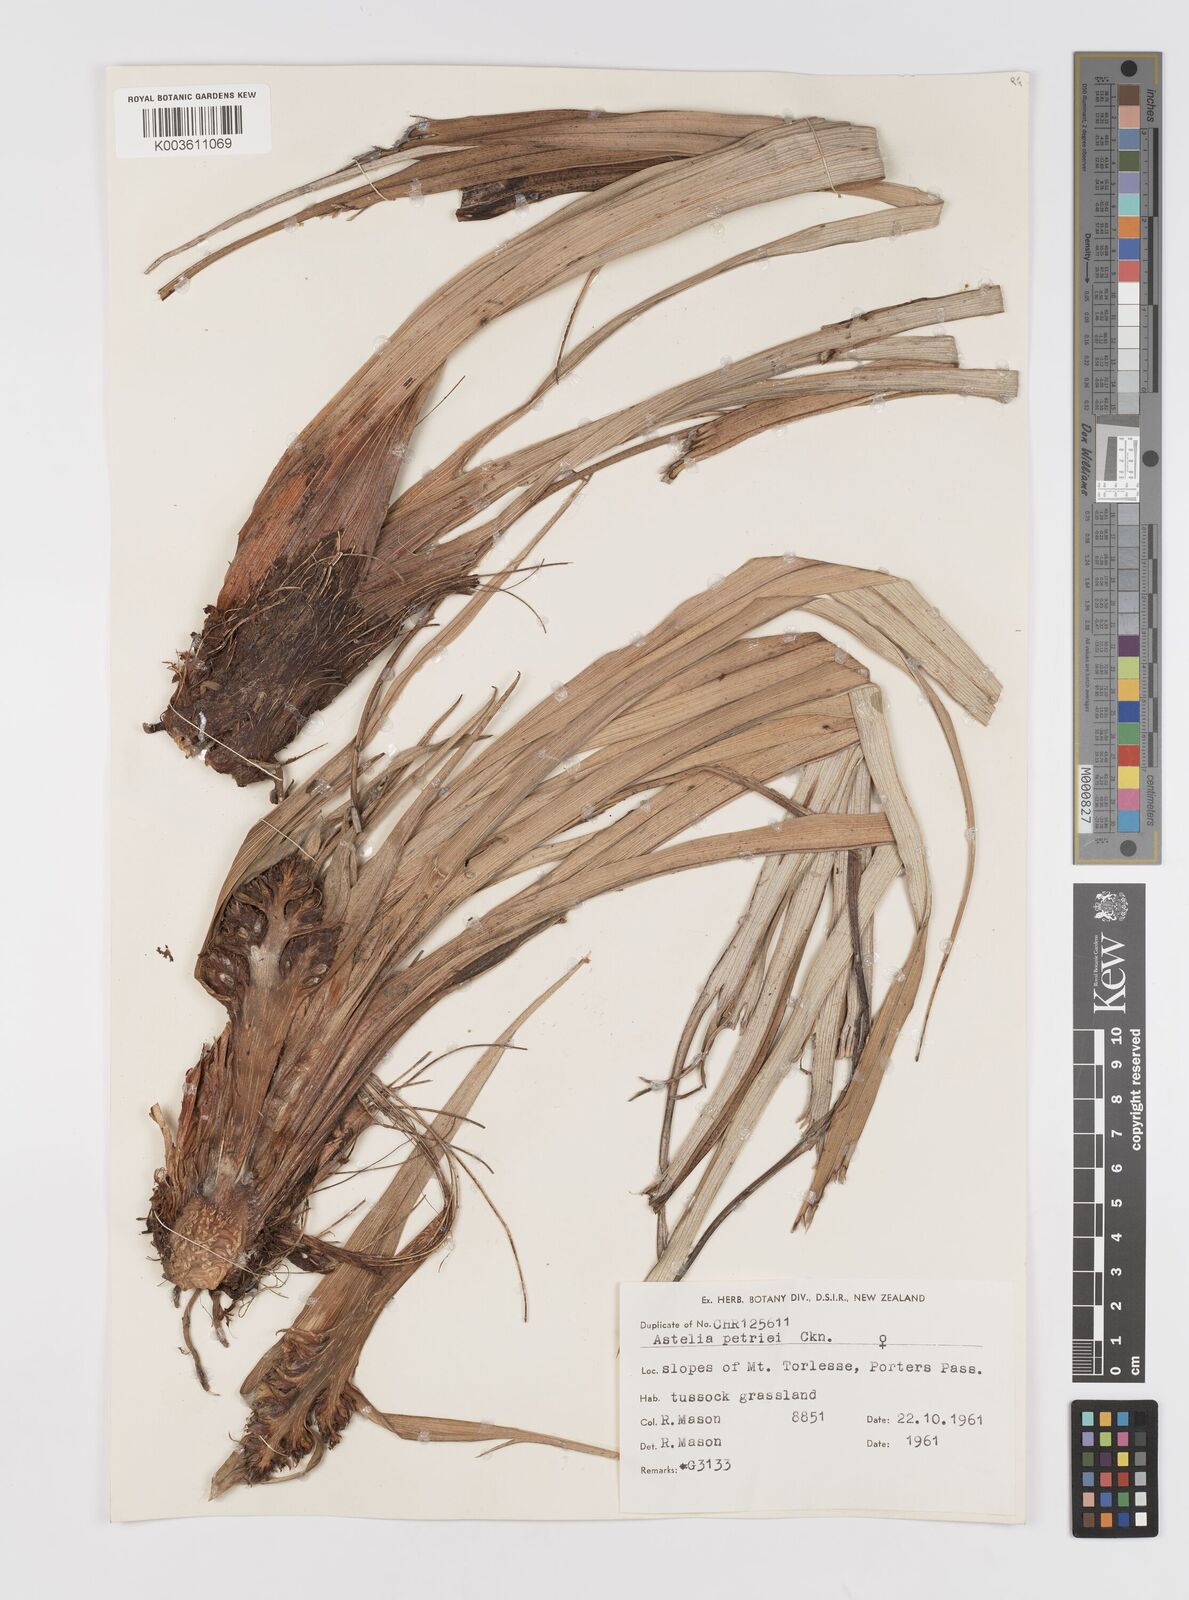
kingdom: Plantae
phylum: Tracheophyta
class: Liliopsida
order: Asparagales
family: Asteliaceae
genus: Astelia
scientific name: Astelia petriei
